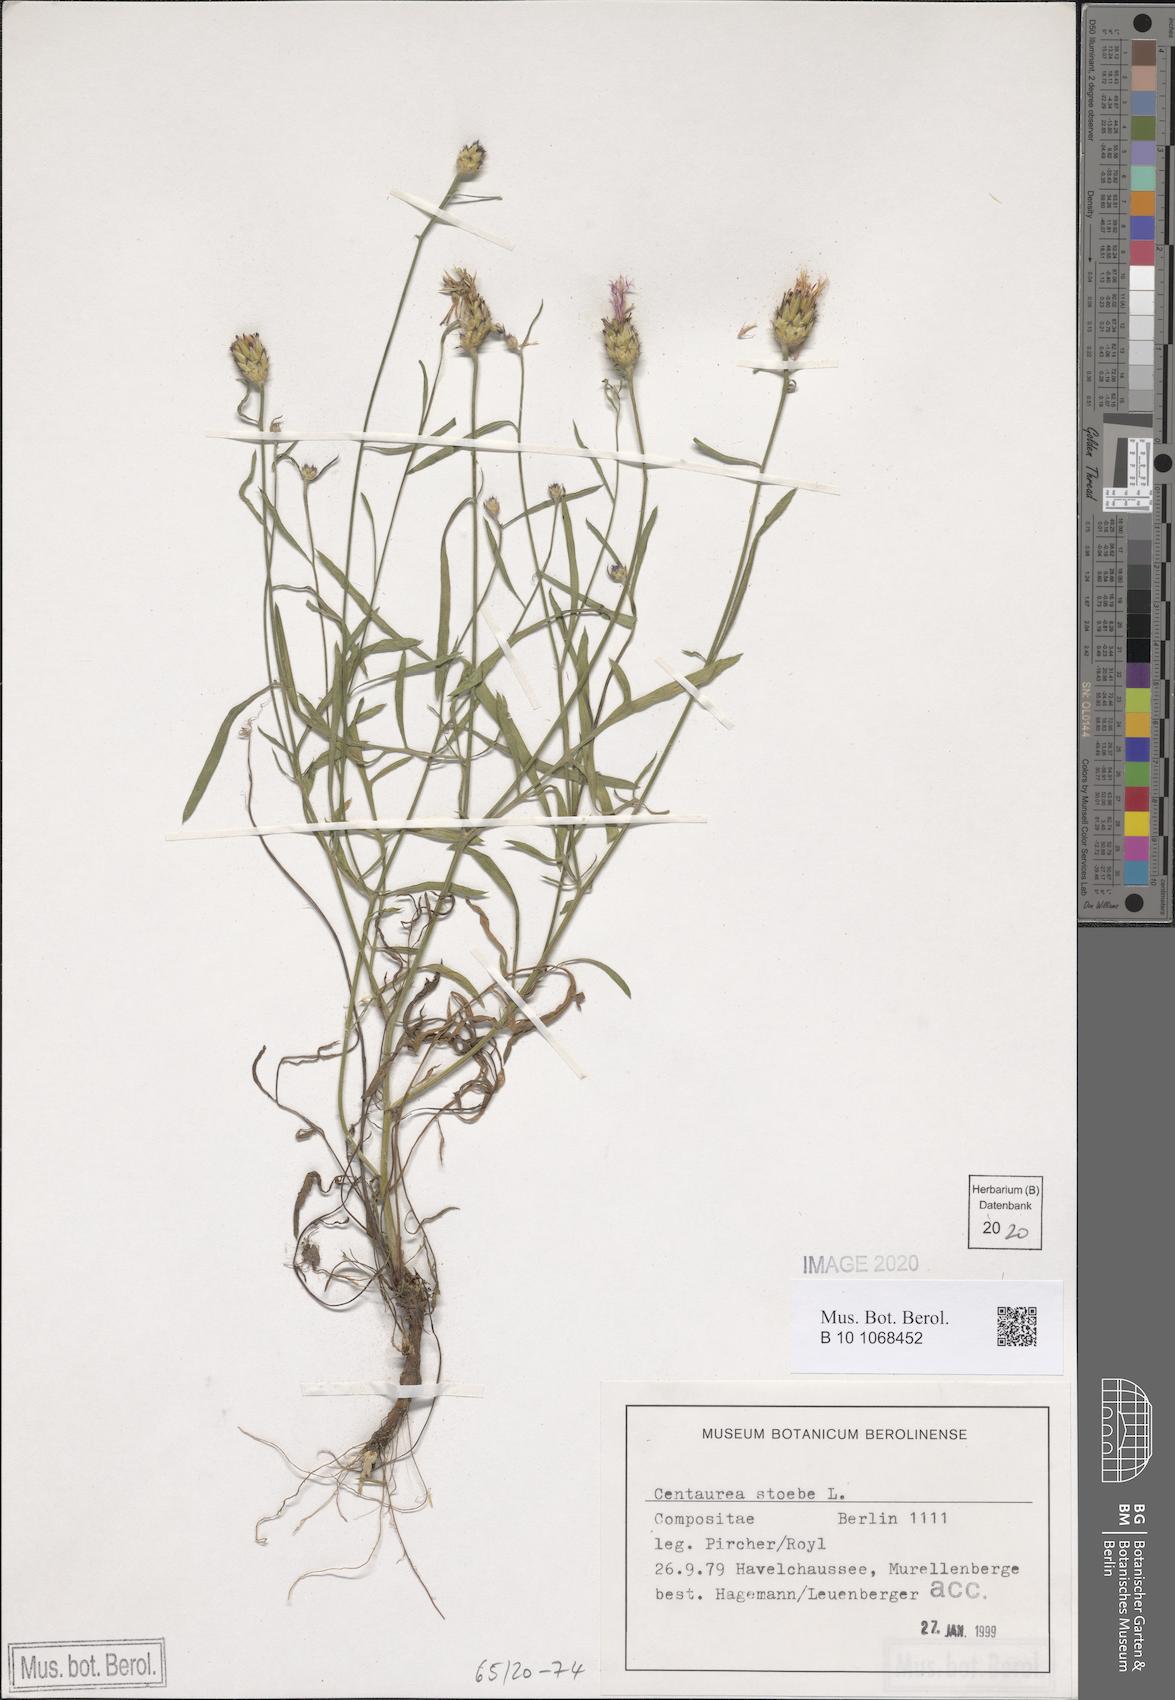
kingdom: Plantae
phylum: Tracheophyta
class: Magnoliopsida
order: Asterales
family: Asteraceae
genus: Centaurea
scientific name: Centaurea stoebe
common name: Spotted knapweed
